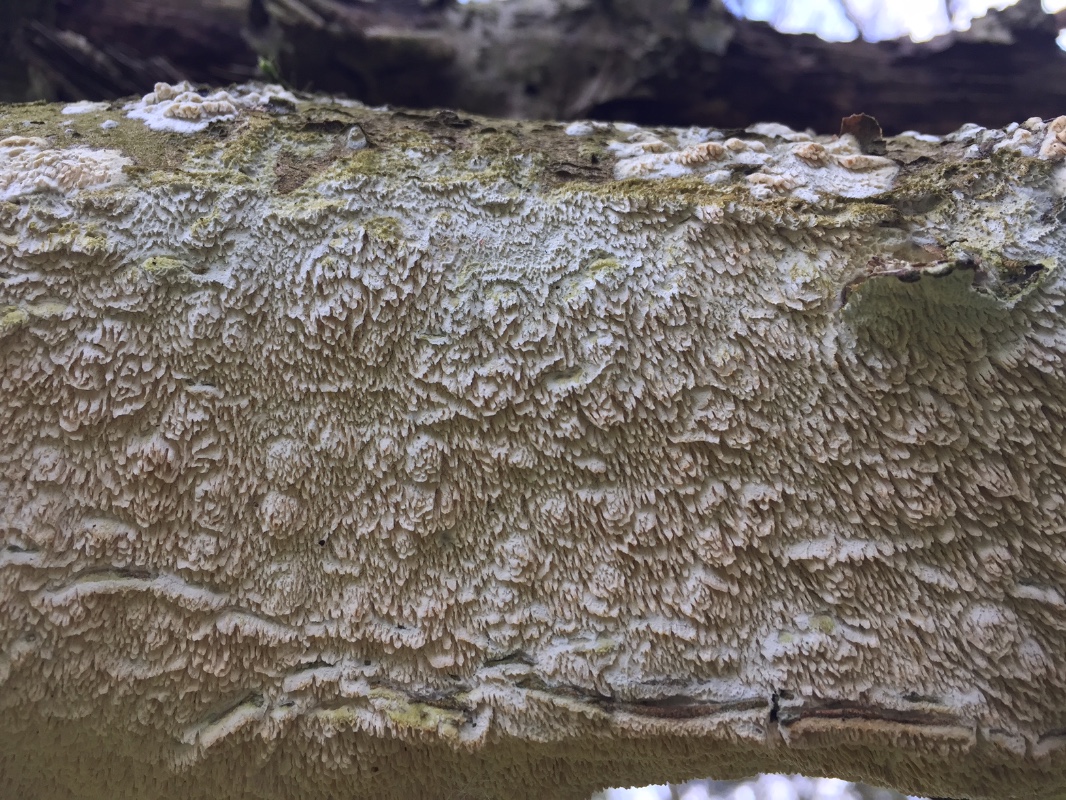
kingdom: Fungi
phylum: Basidiomycota
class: Agaricomycetes
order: Hymenochaetales
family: Schizoporaceae
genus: Schizopora
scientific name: Schizopora paradoxa
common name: hvid tandsvamp
